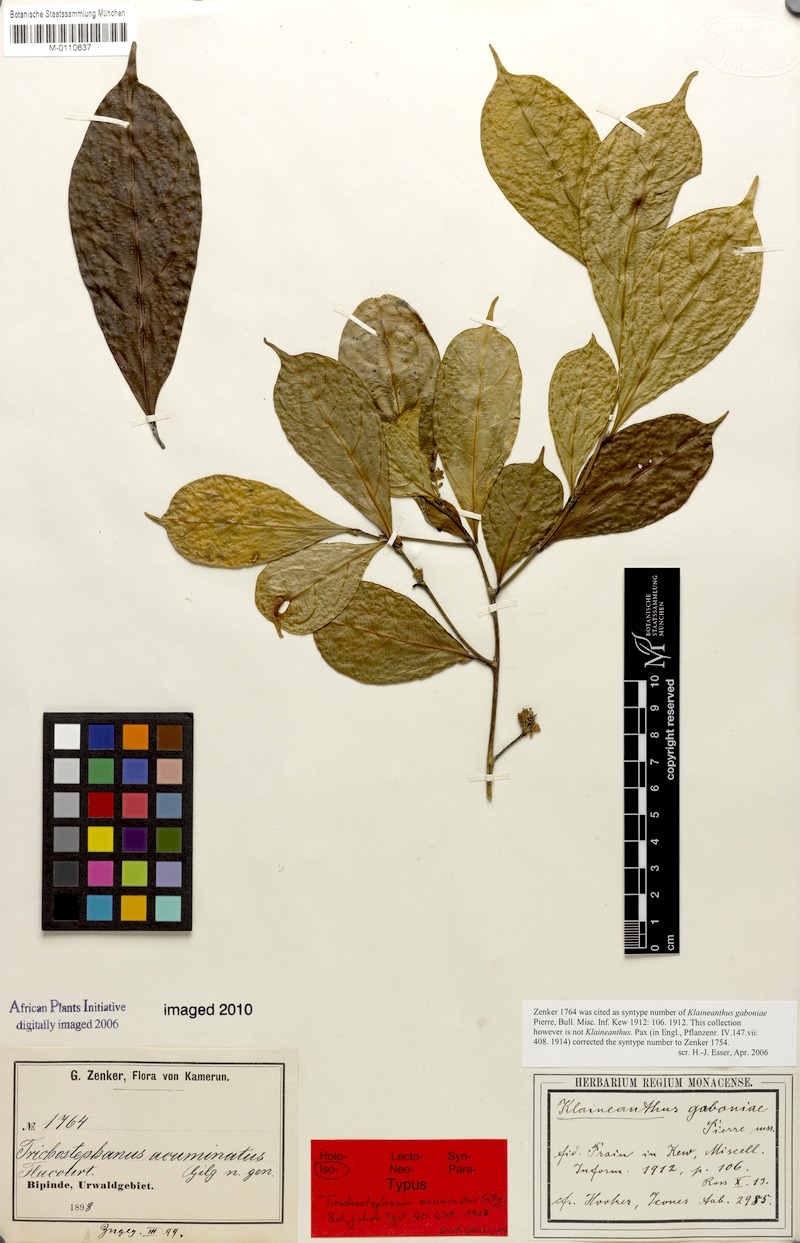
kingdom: Plantae
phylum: Tracheophyta
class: Magnoliopsida
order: Malpighiales
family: Salicaceae
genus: Trichostephanus
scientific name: Trichostephanus acuminatus
